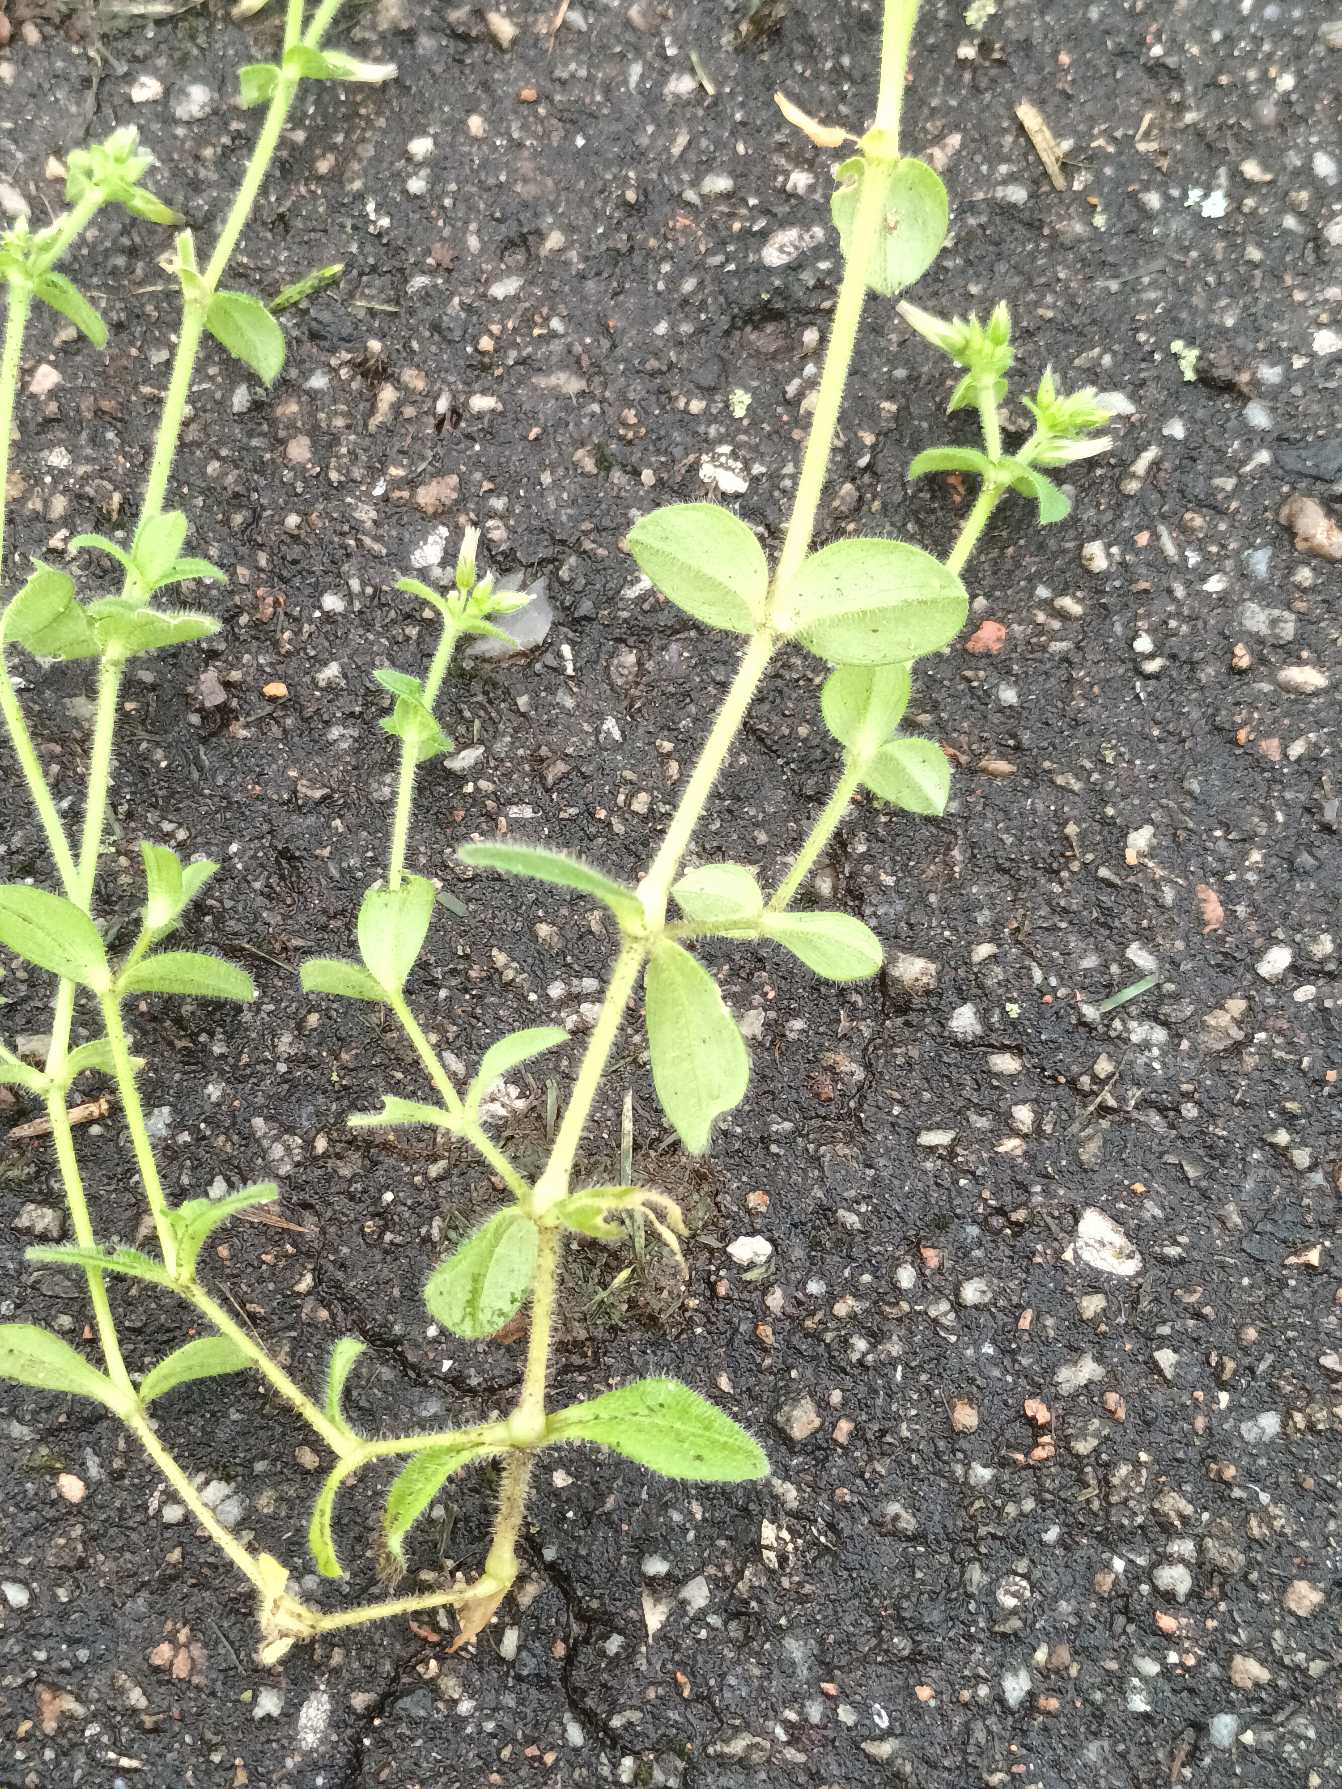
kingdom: Plantae
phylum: Tracheophyta
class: Magnoliopsida
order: Caryophyllales
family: Caryophyllaceae
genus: Cerastium
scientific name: Cerastium glomeratum
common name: Opret hønsetarm
